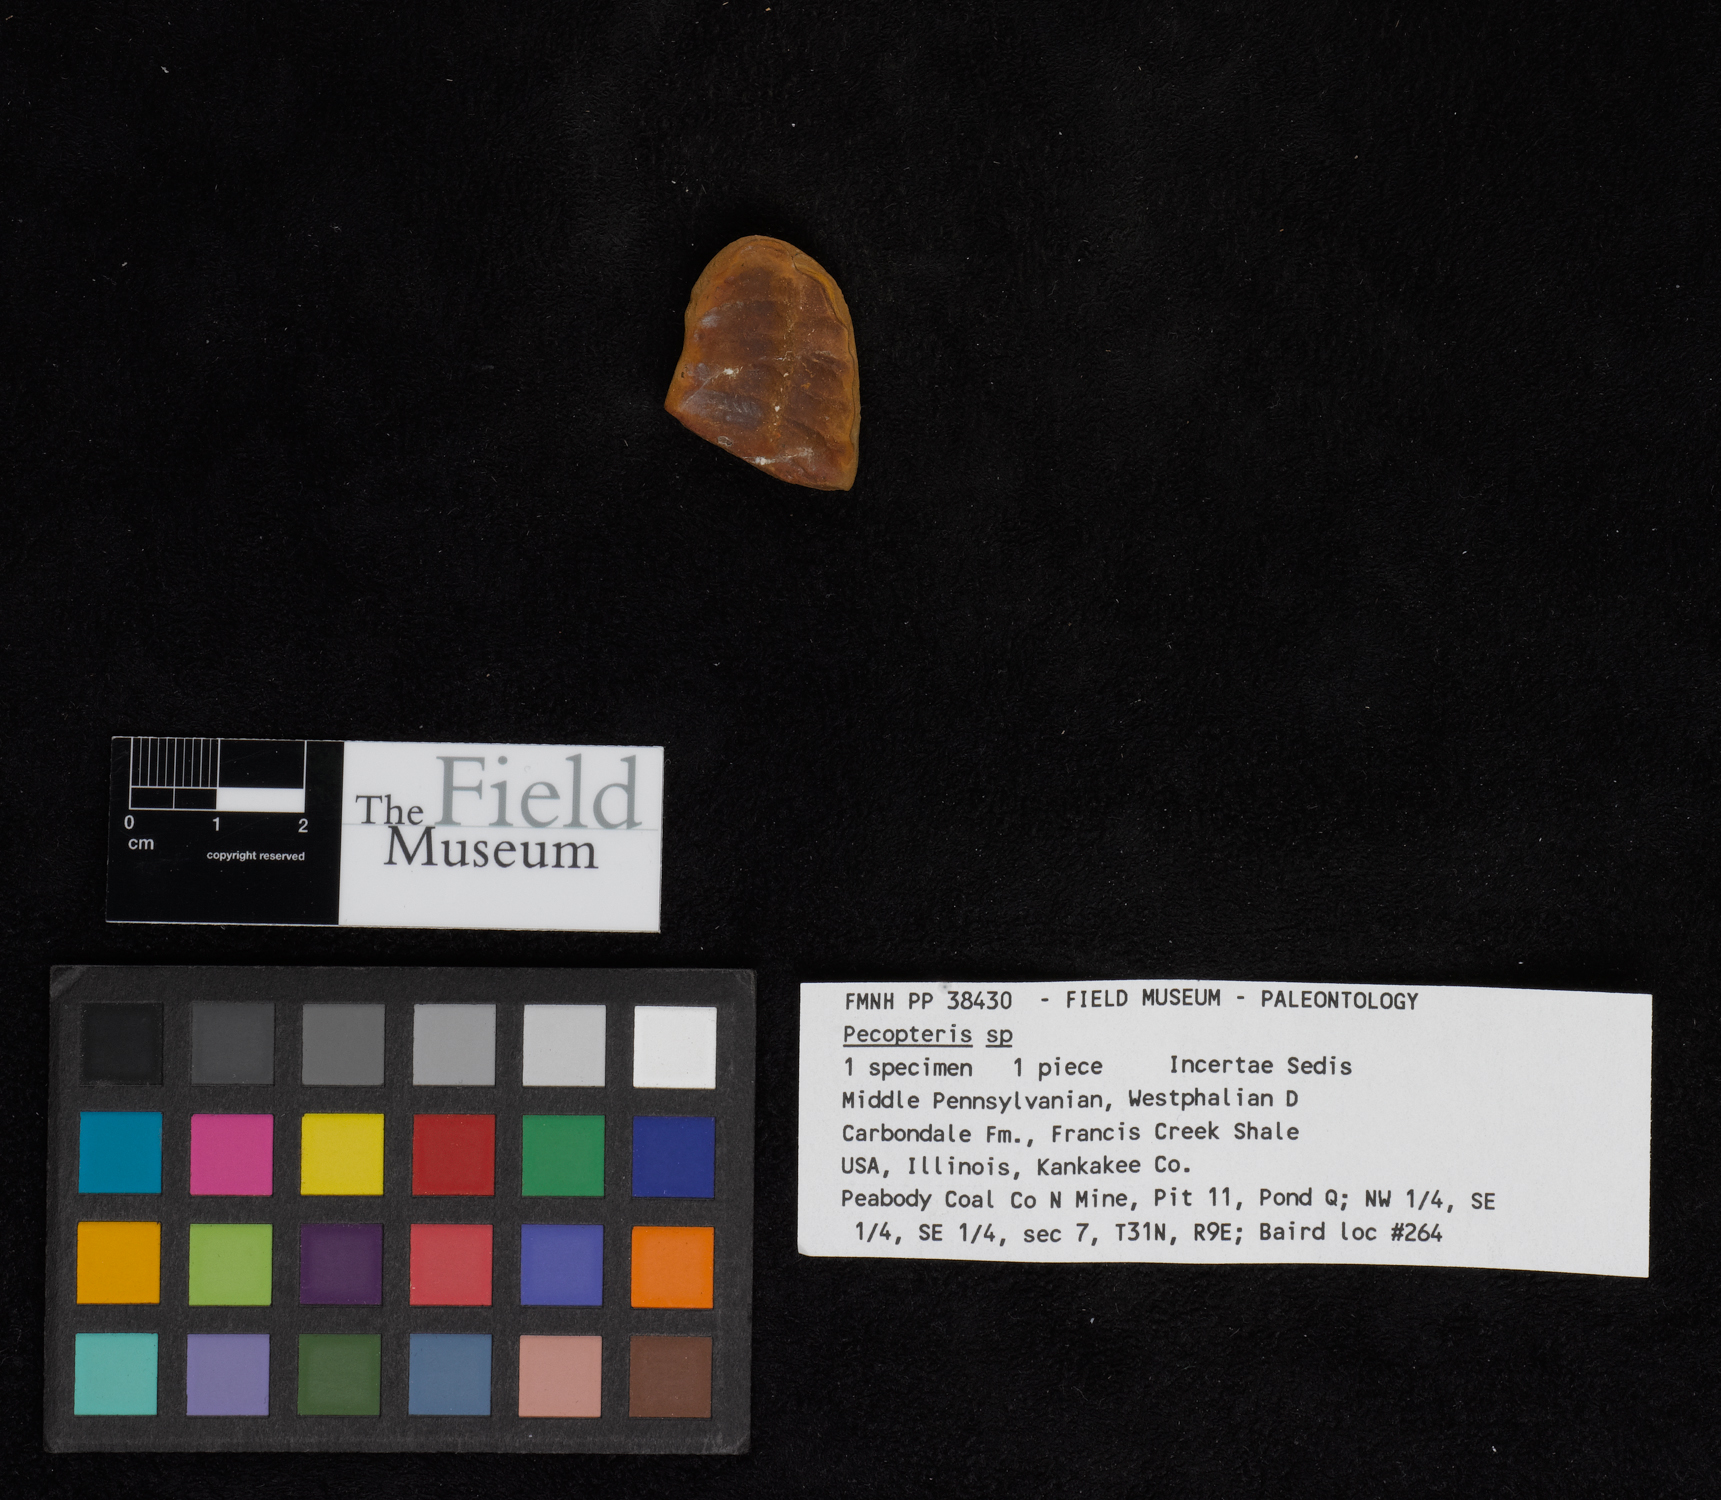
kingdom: Plantae
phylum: Tracheophyta
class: Polypodiopsida
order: Marattiales
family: Asterothecaceae
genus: Pecopteris
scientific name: Pecopteris
